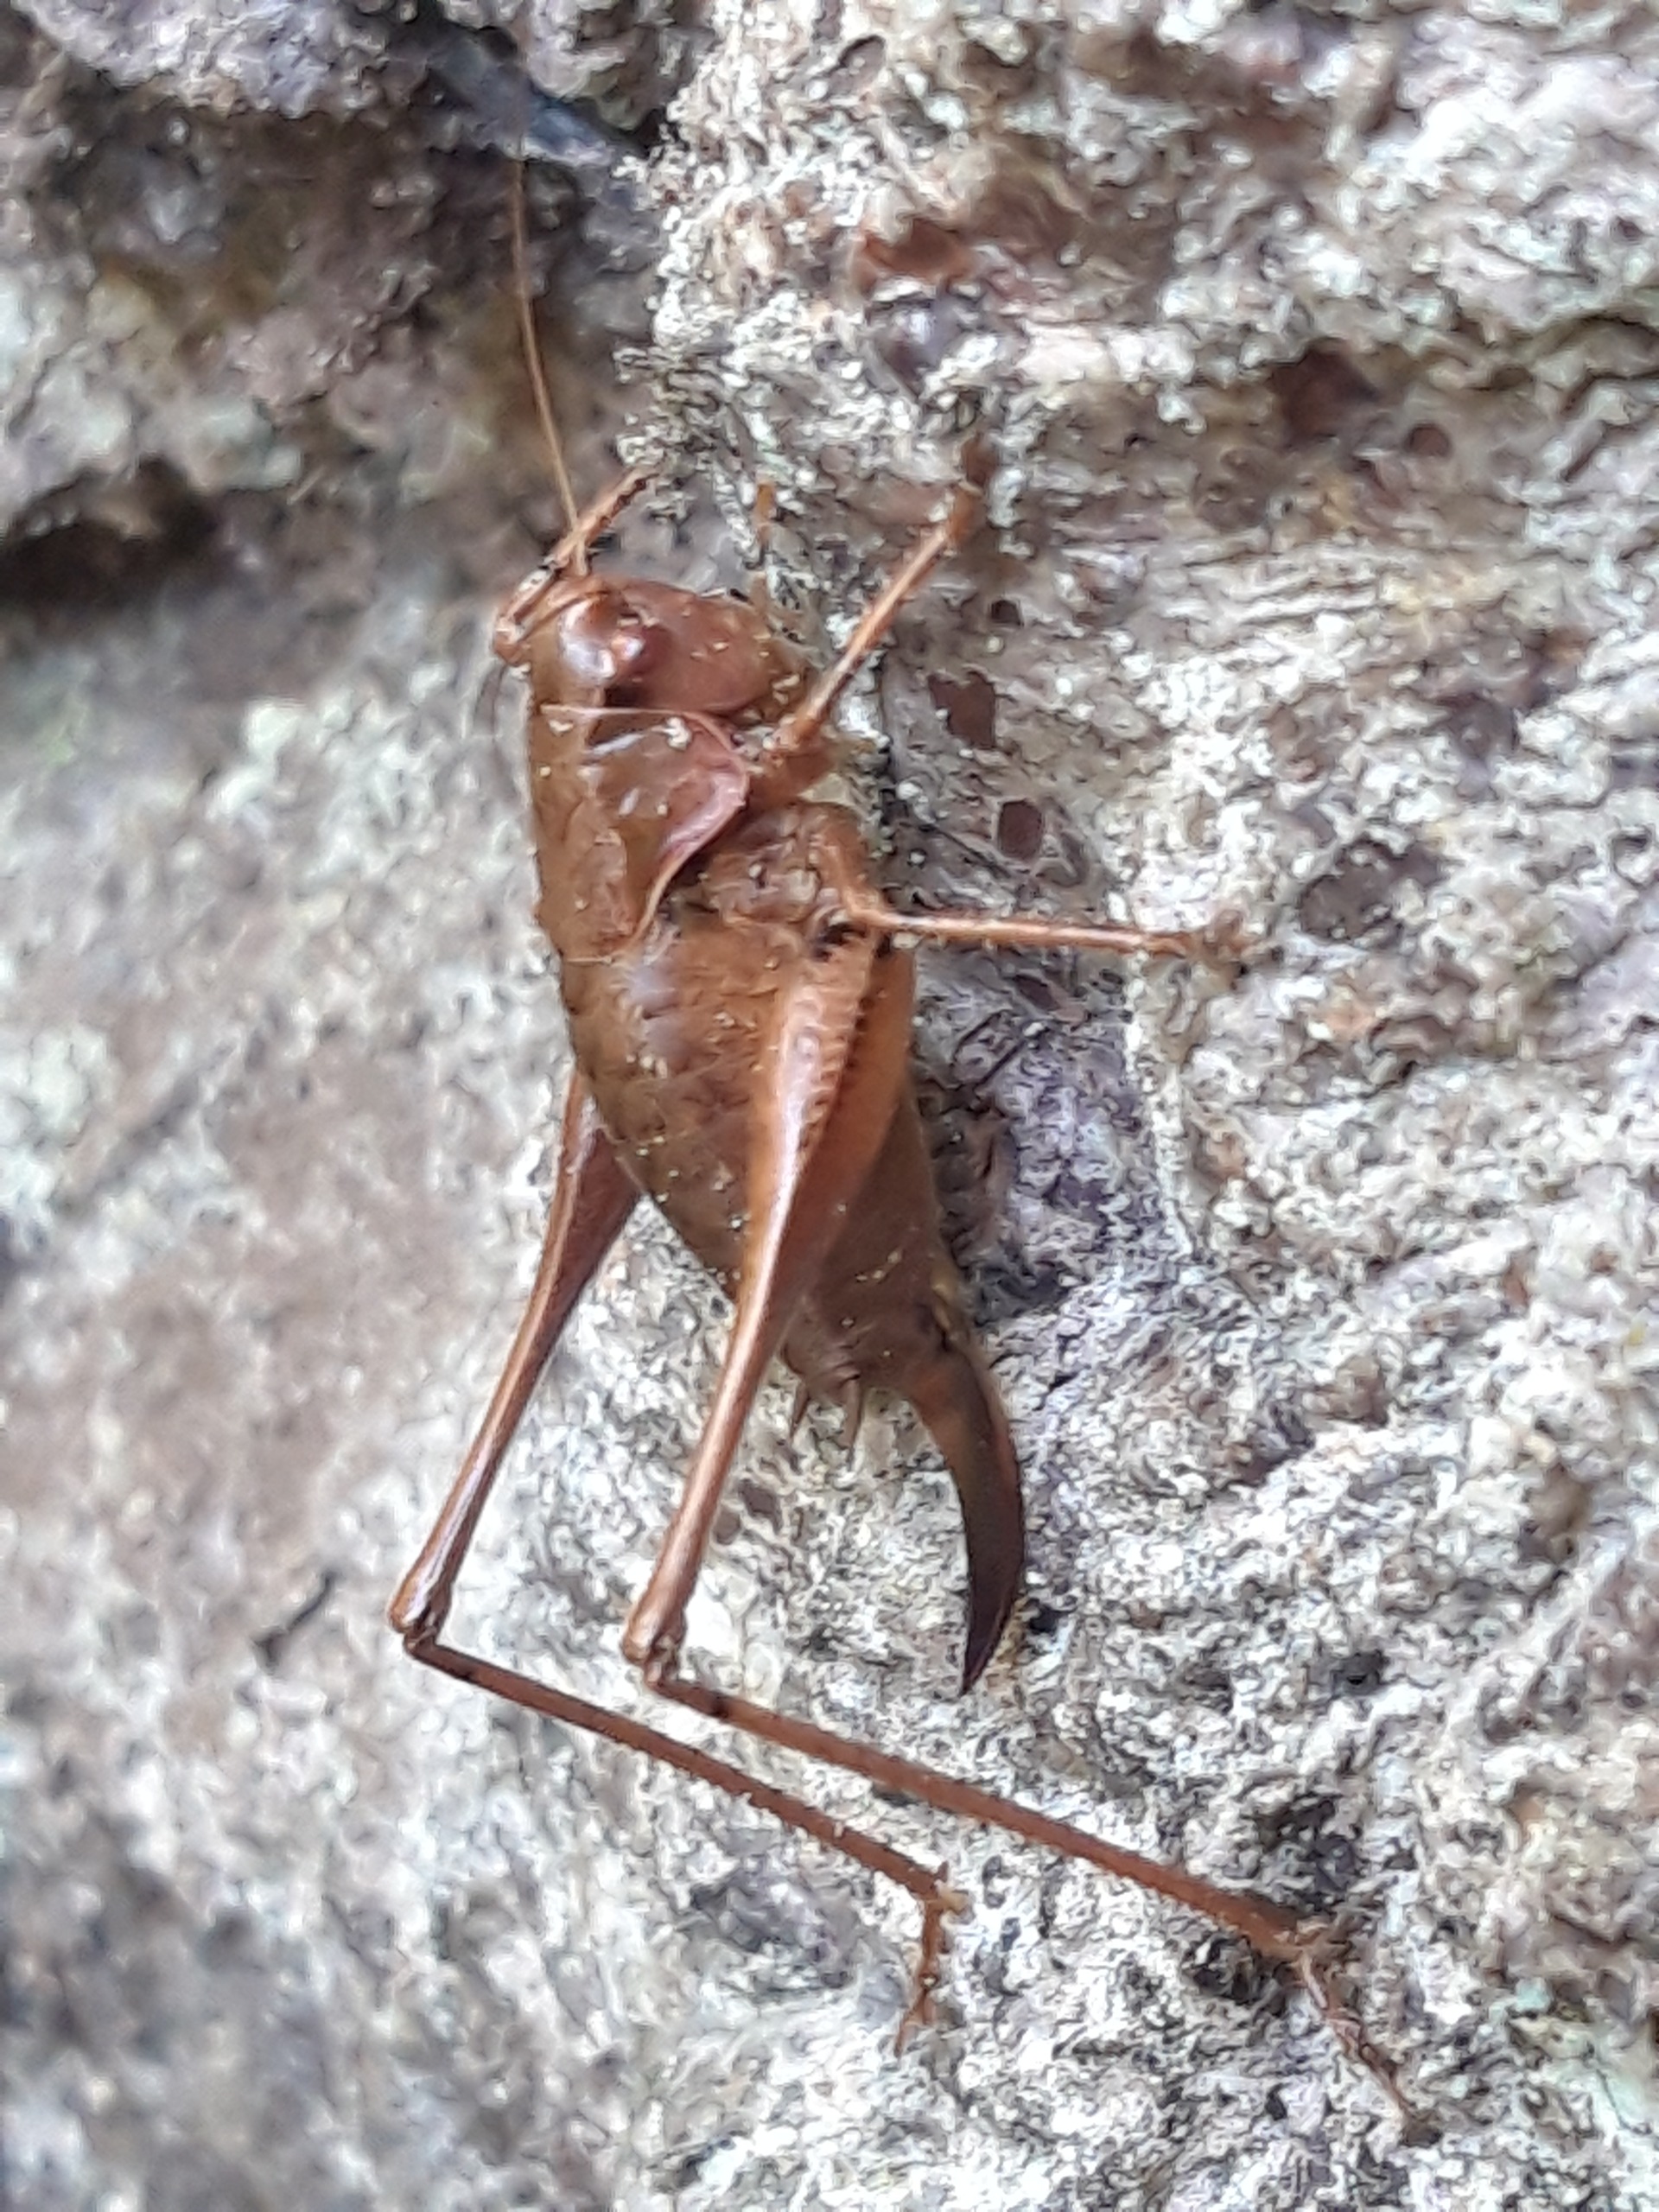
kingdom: Animalia
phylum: Arthropoda
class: Insecta
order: Orthoptera
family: Tettigoniidae
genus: Pholidoptera
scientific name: Pholidoptera griseoaptera
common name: Buskgræshoppe
